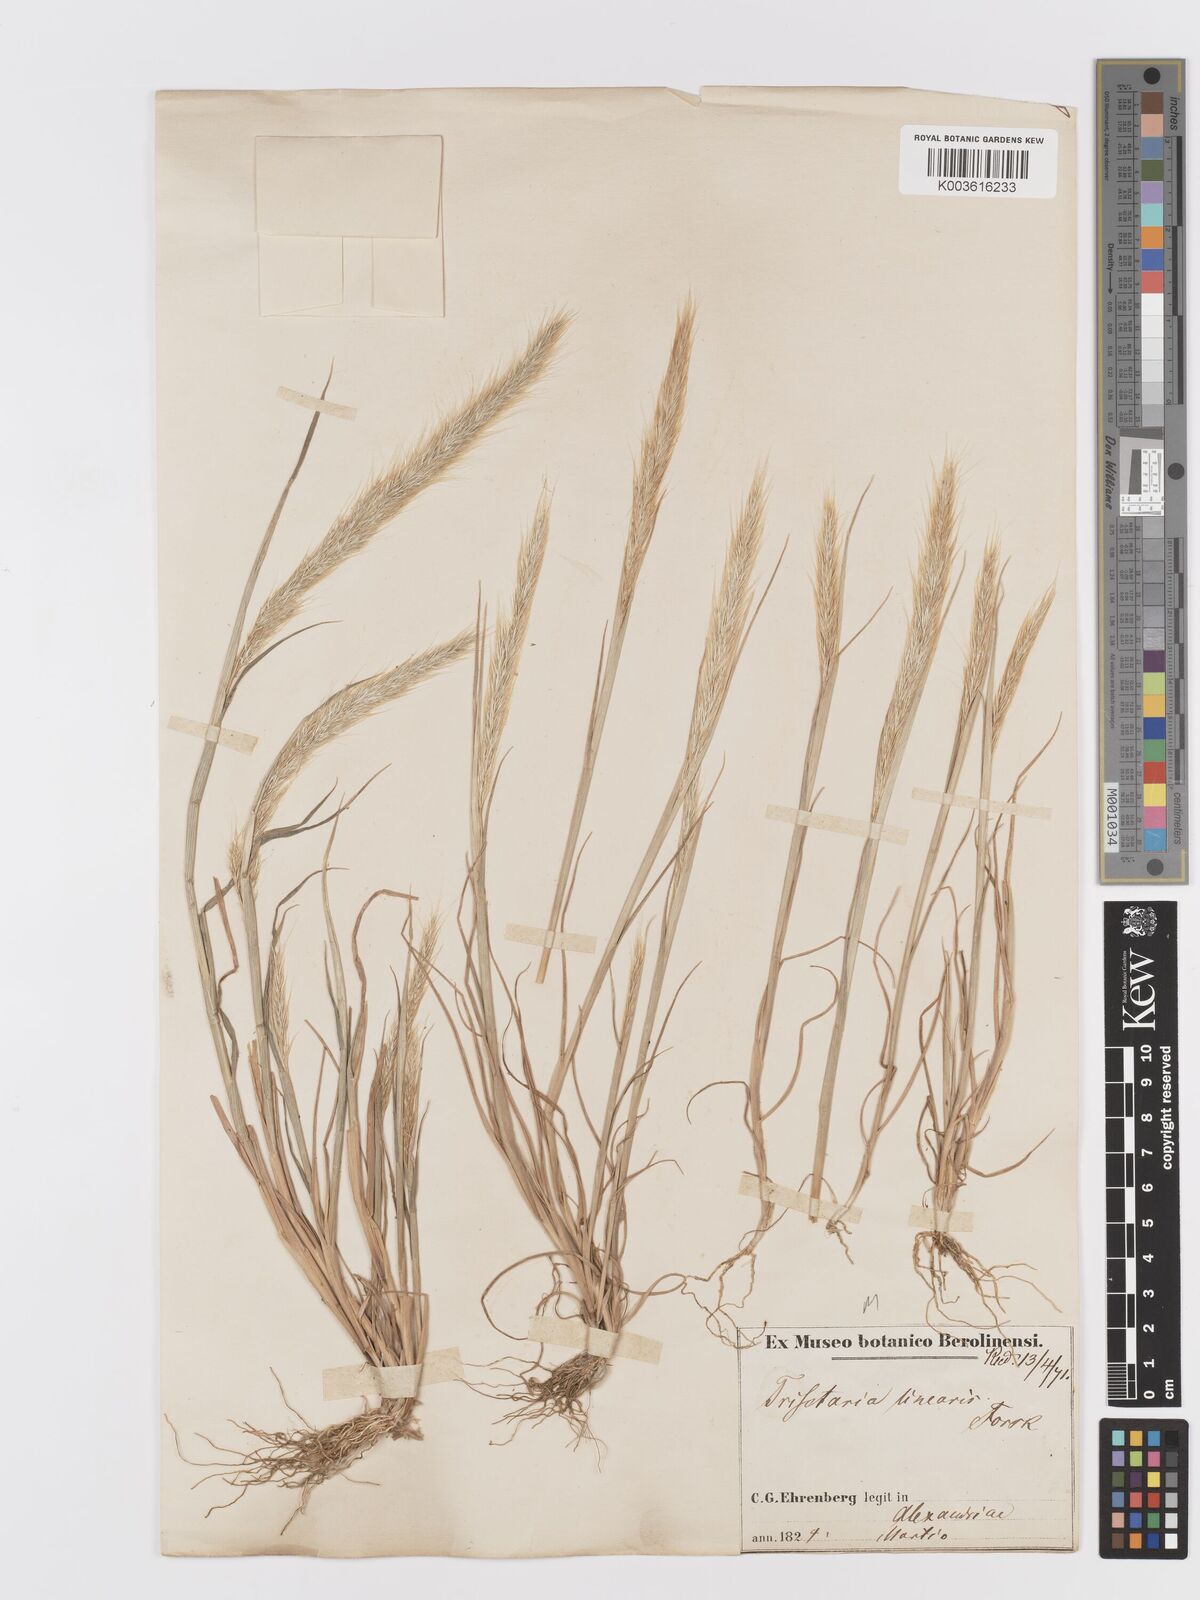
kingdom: Plantae
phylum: Tracheophyta
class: Liliopsida
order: Poales
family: Poaceae
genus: Trisetaria
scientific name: Trisetaria linearis
